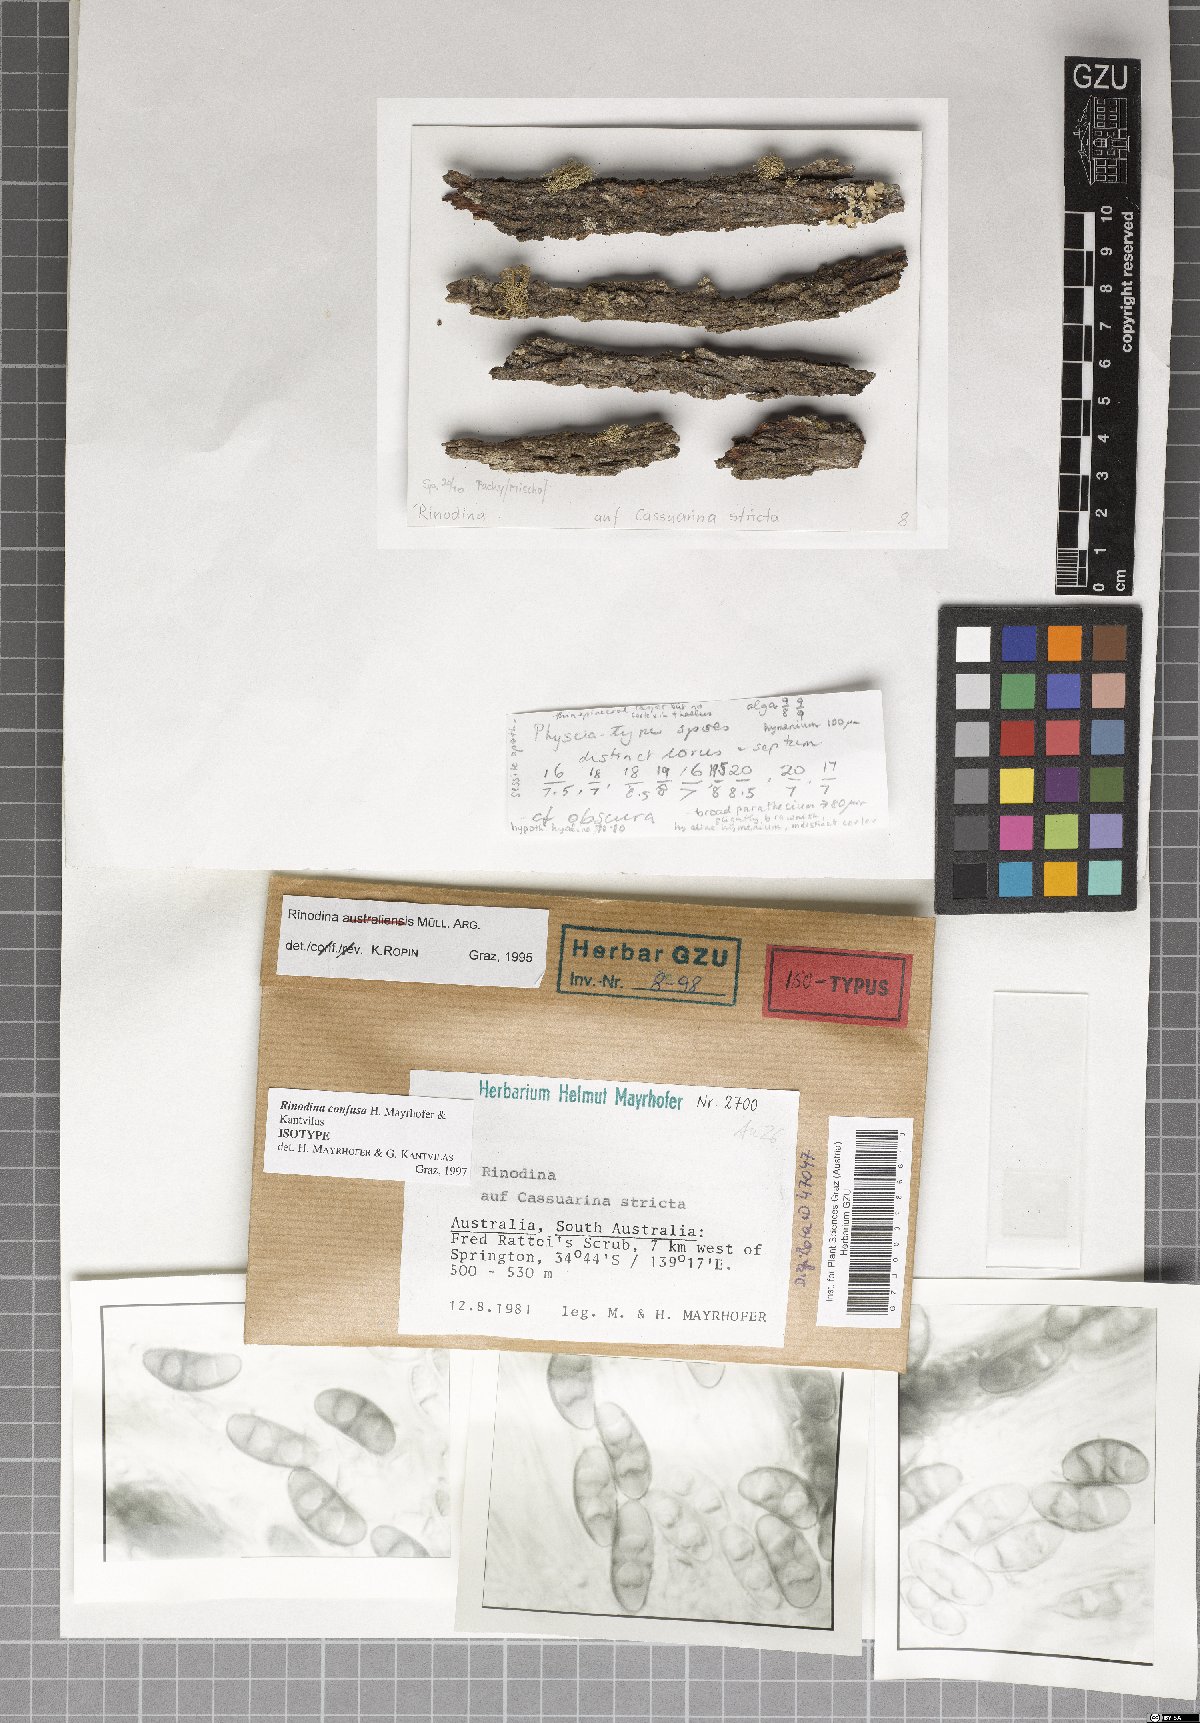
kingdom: Fungi
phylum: Ascomycota
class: Lecanoromycetes
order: Caliciales
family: Physciaceae
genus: Rinodina
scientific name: Rinodina confusa
